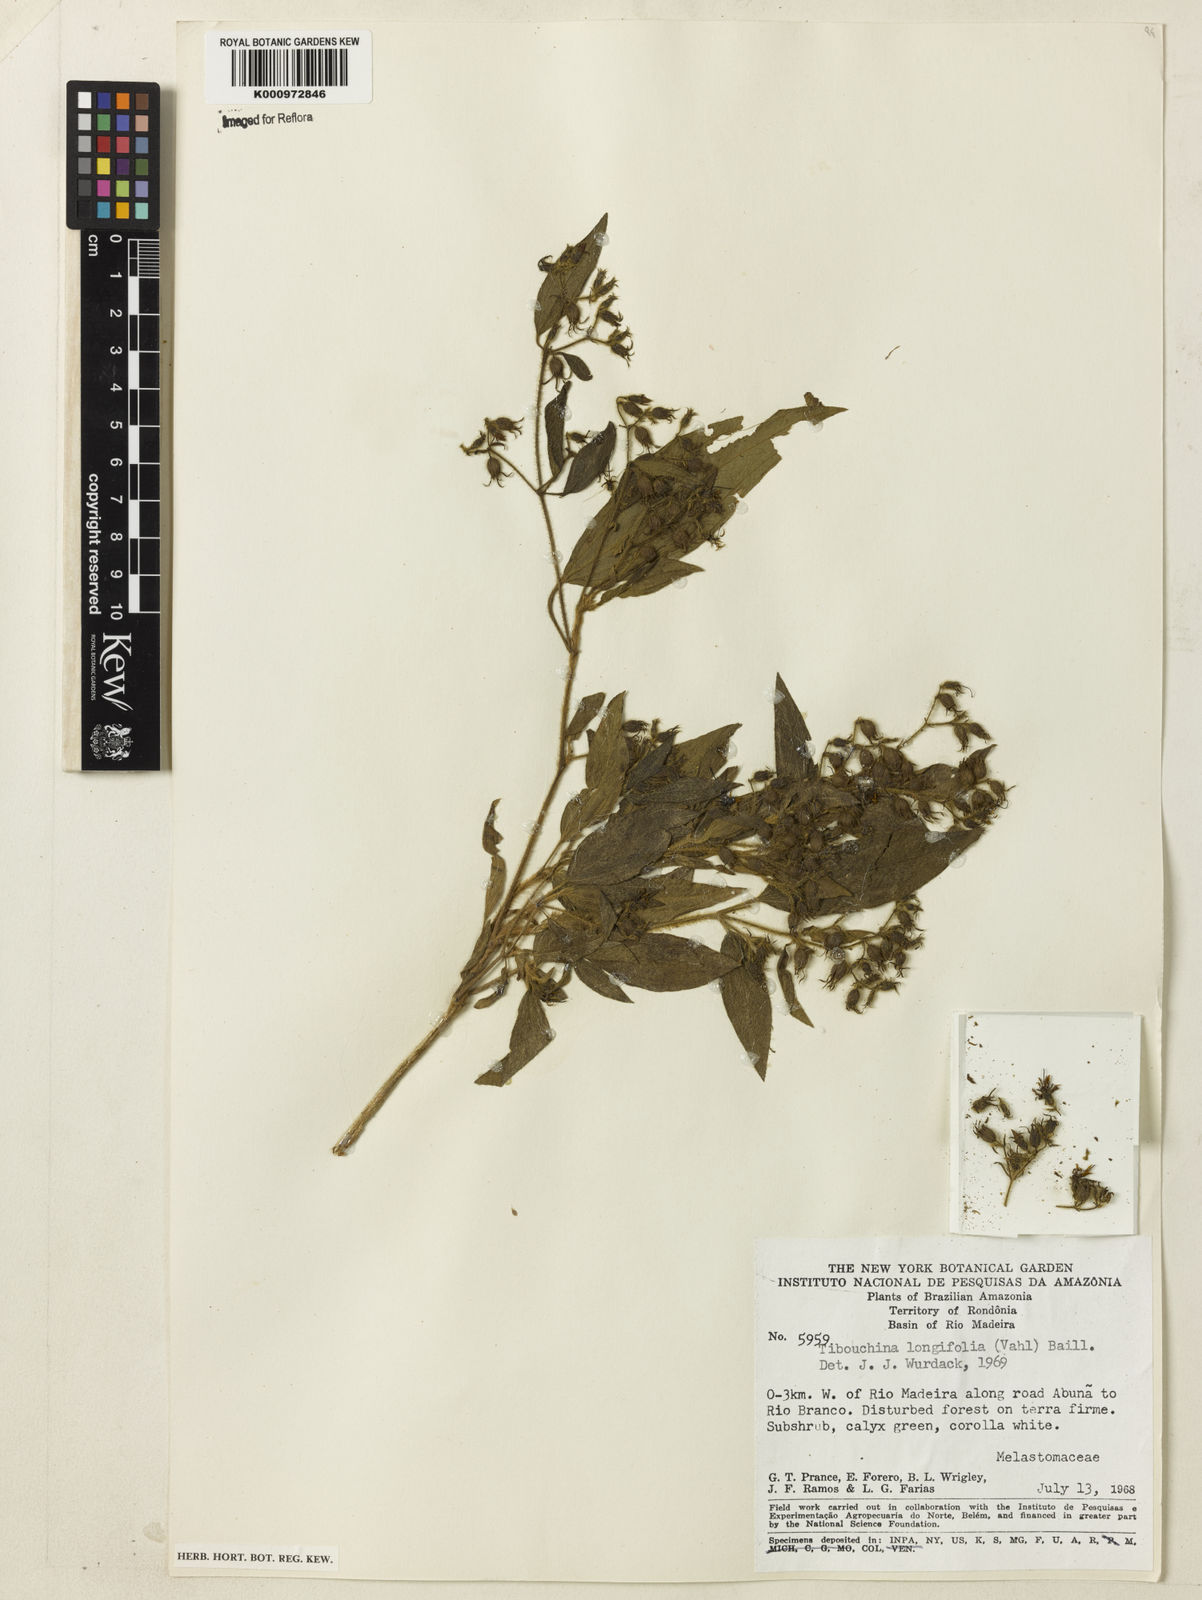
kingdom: Plantae
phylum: Tracheophyta
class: Magnoliopsida
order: Myrtales
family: Melastomataceae
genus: Chaetogastra
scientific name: Chaetogastra longifolia
